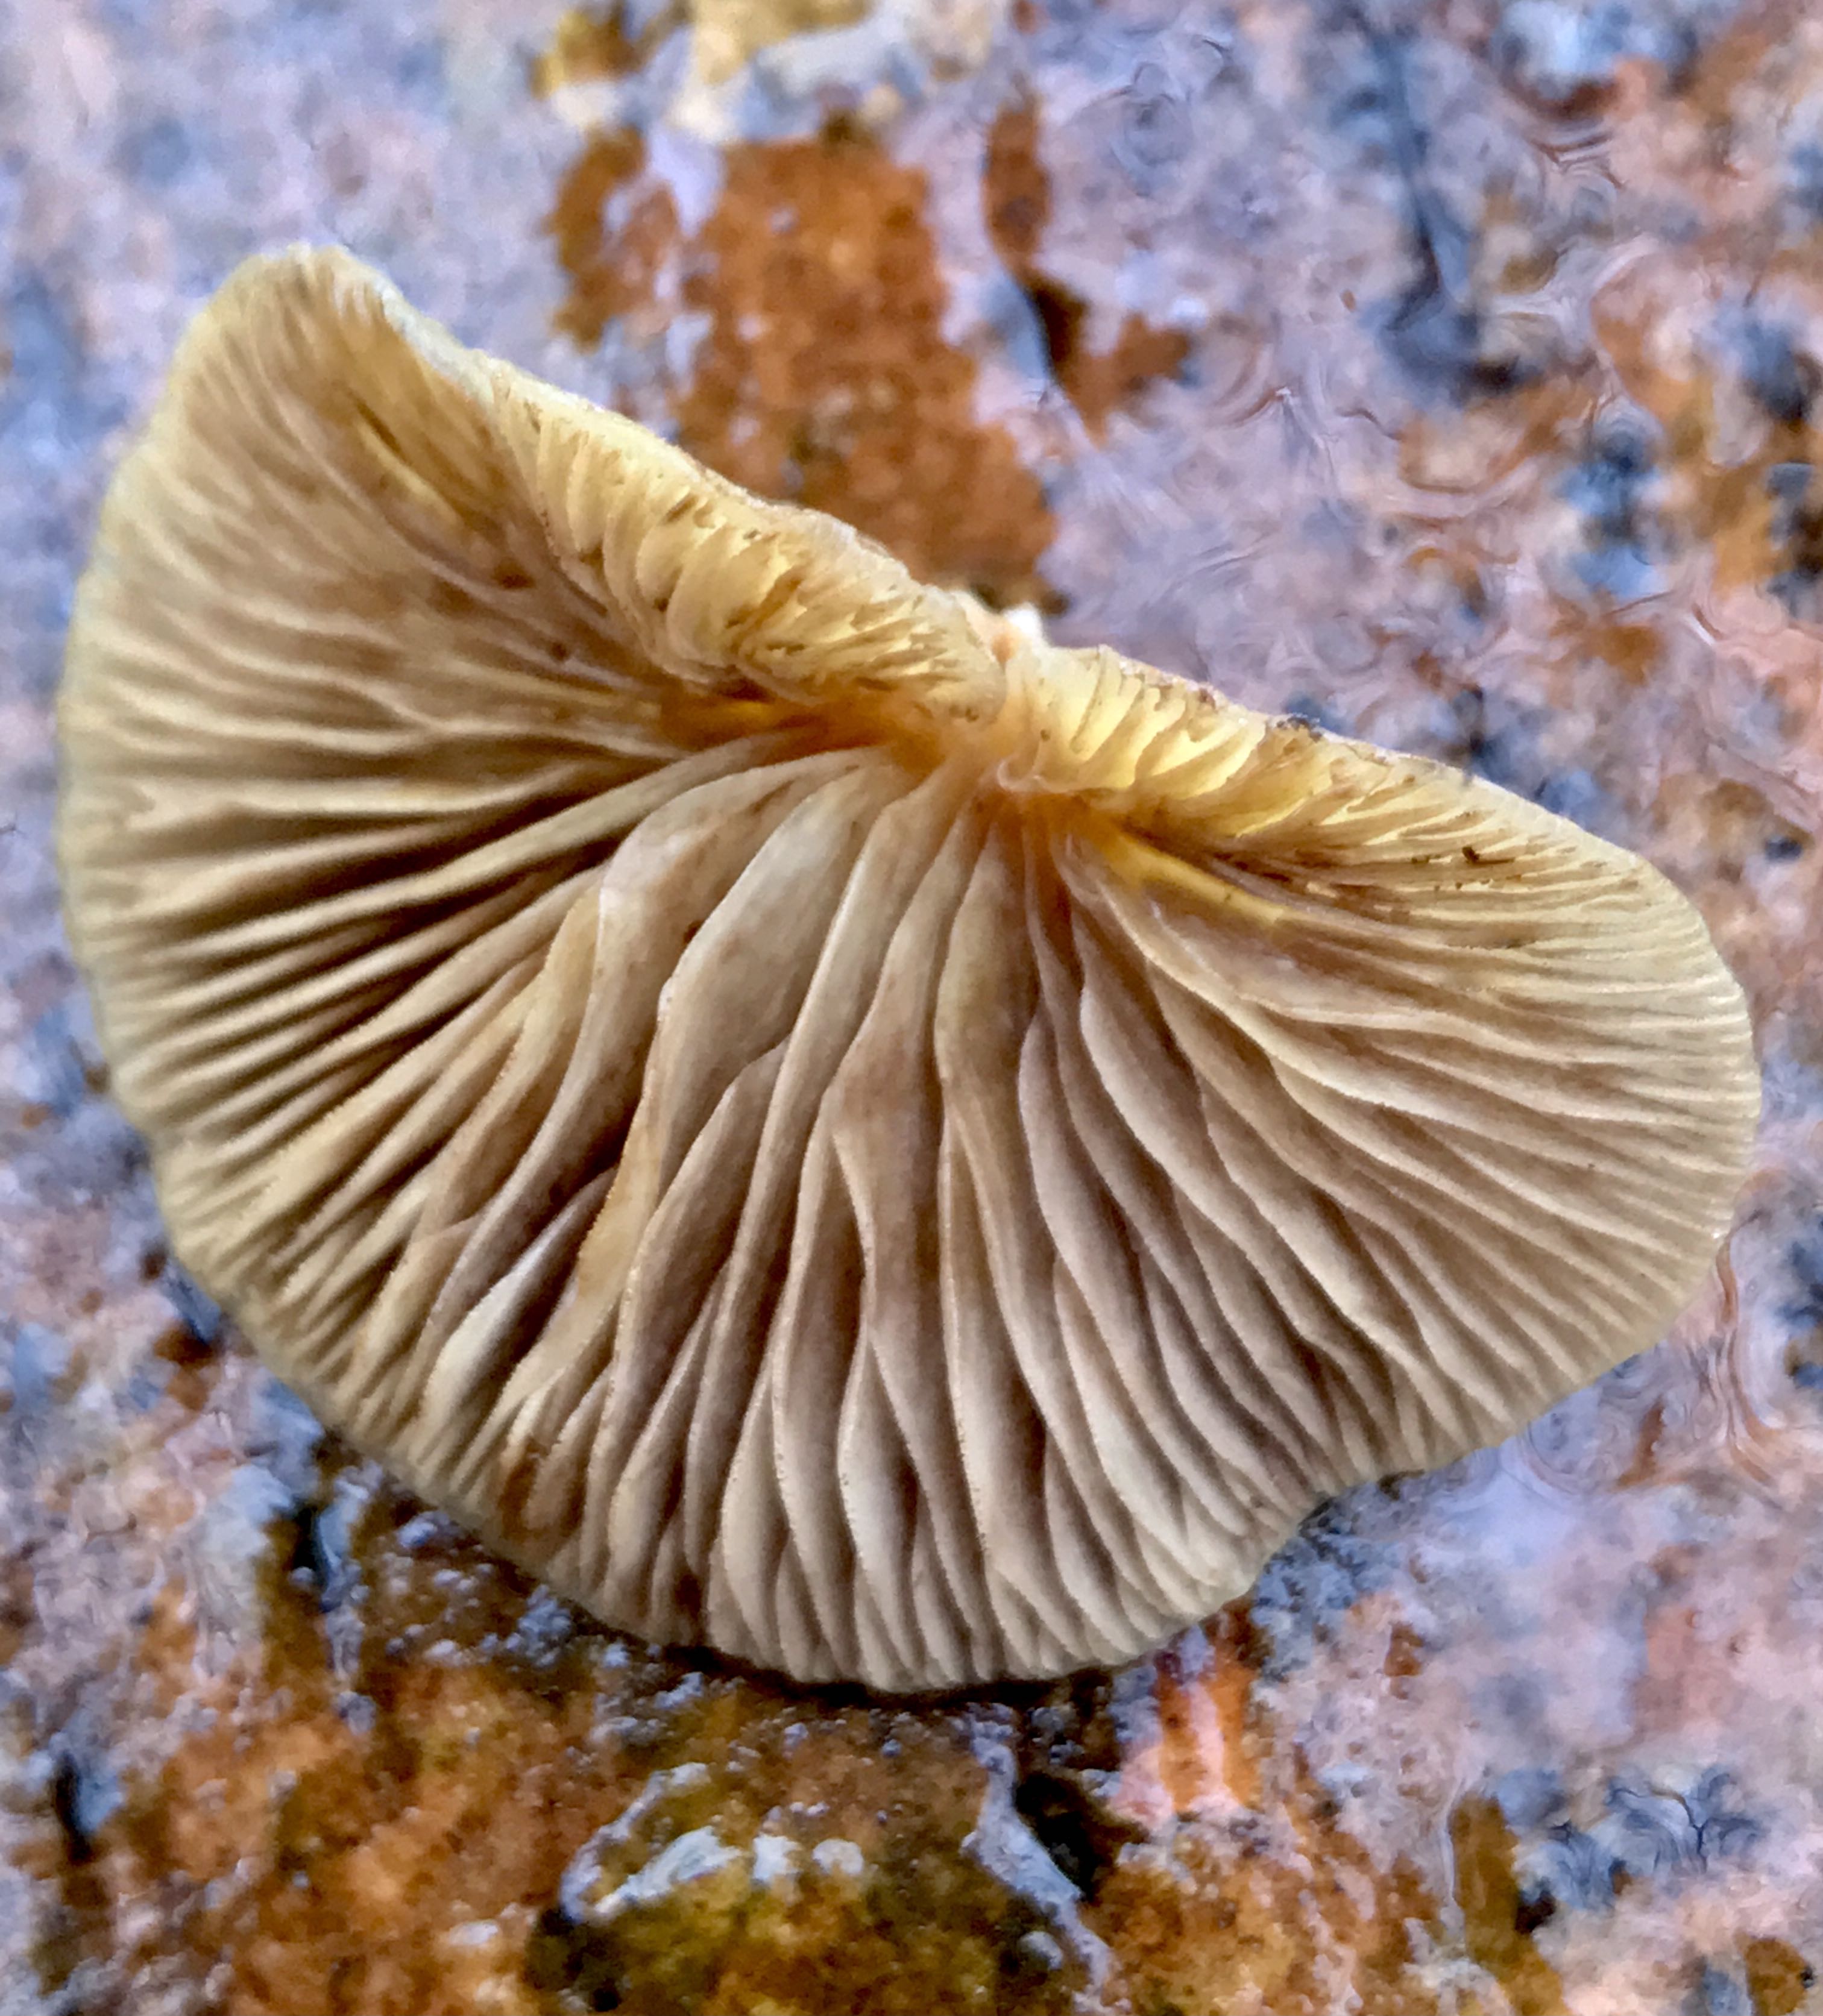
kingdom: Fungi
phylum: Basidiomycota
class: Agaricomycetes
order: Agaricales
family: Crepidotaceae
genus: Crepidotus
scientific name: Crepidotus mollis
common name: blød muslingesvamp
